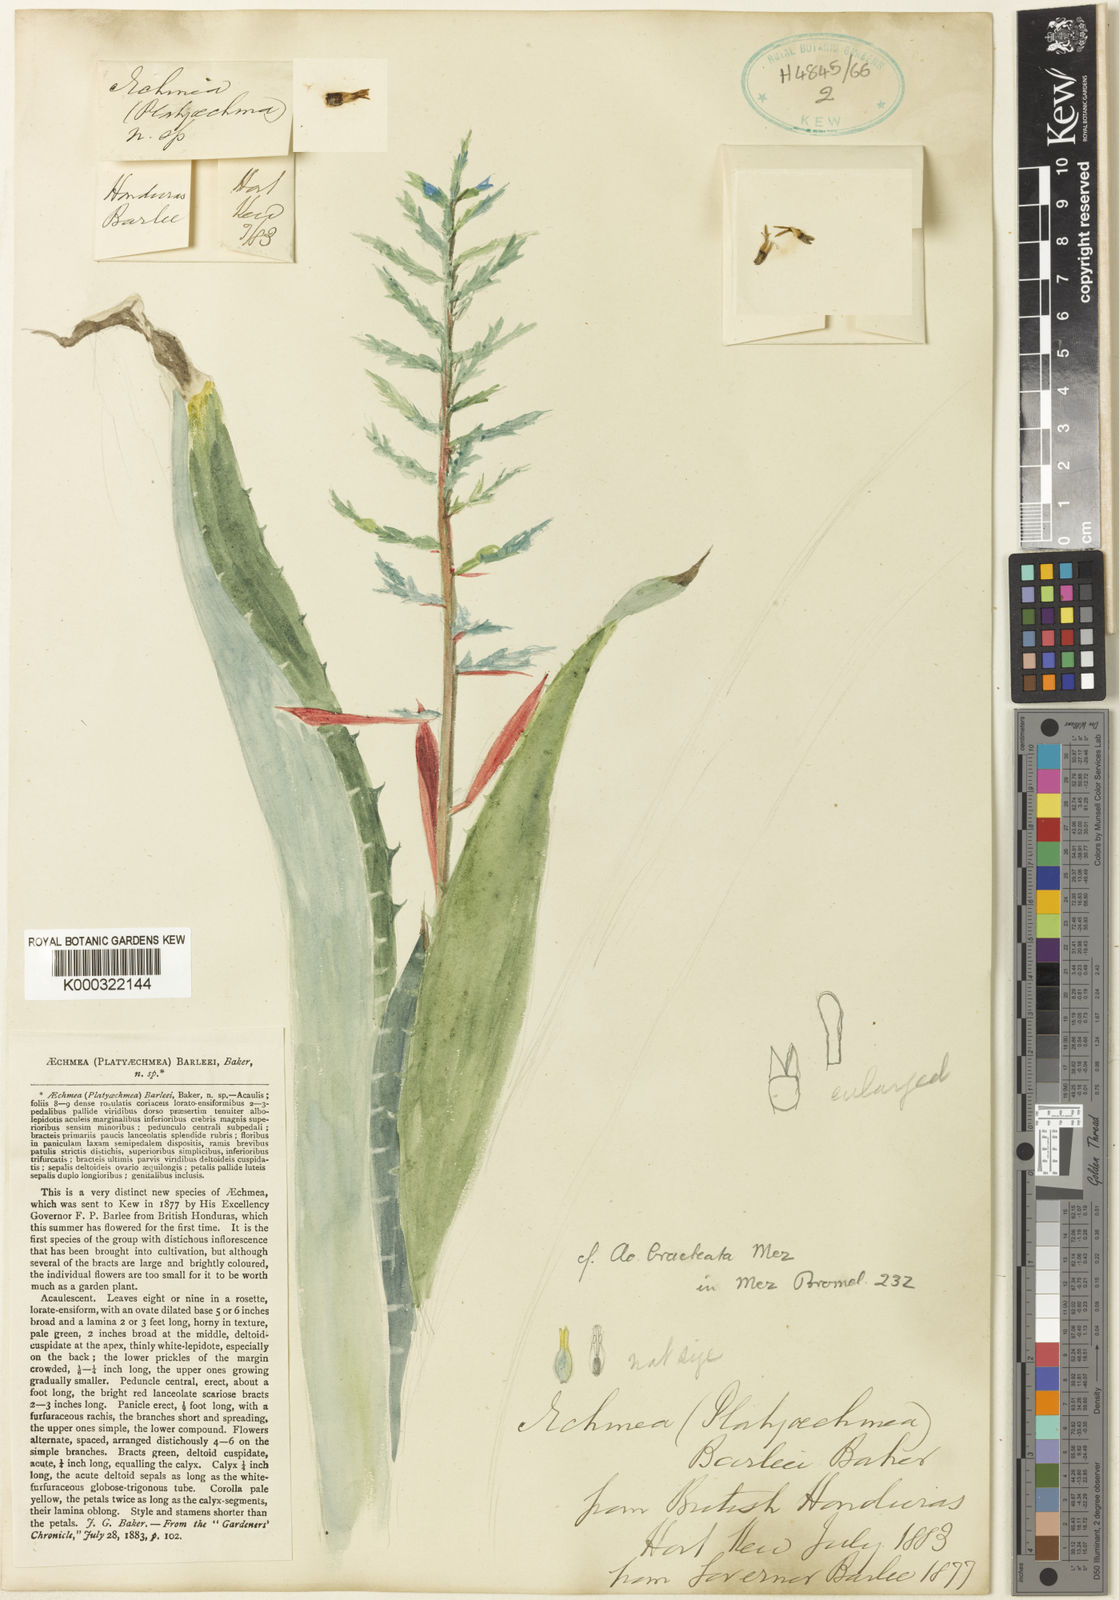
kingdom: Plantae
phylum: Tracheophyta
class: Liliopsida
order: Poales
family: Bromeliaceae
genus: Aechmea
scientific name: Aechmea bracteata
